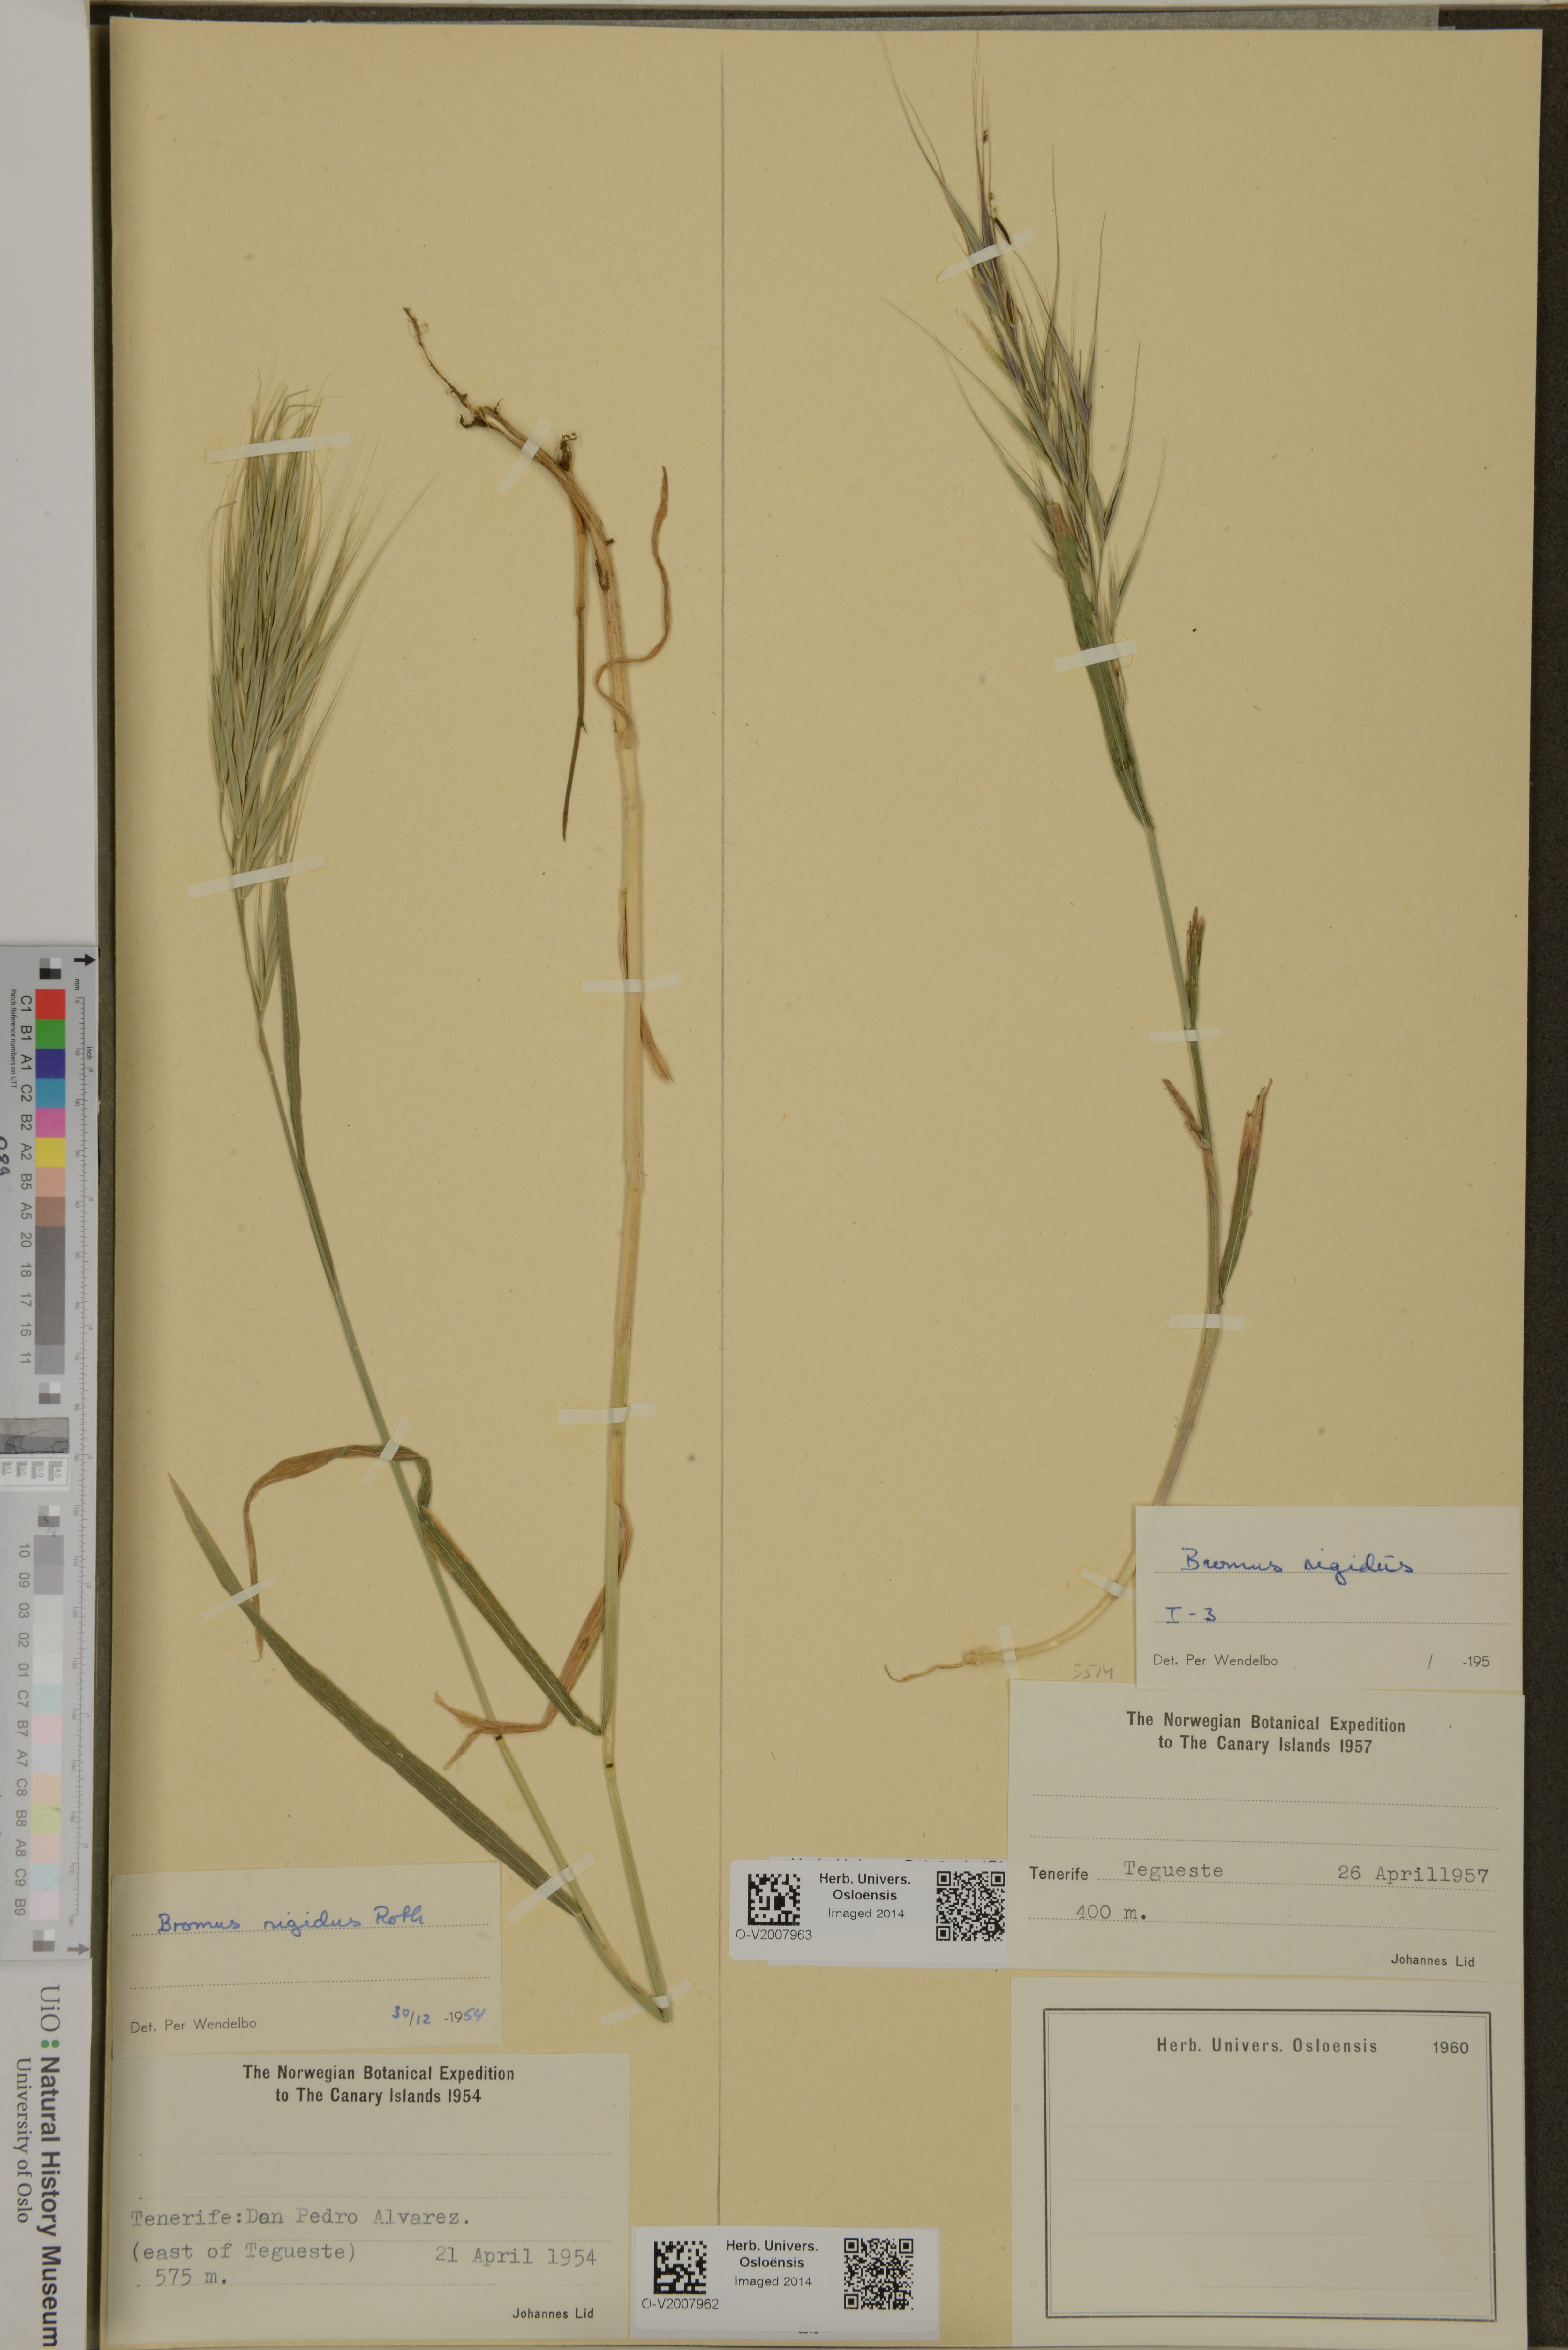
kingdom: Plantae
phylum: Tracheophyta
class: Liliopsida
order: Poales
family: Poaceae
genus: Bromus
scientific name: Bromus rigidus
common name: Ripgut brome
